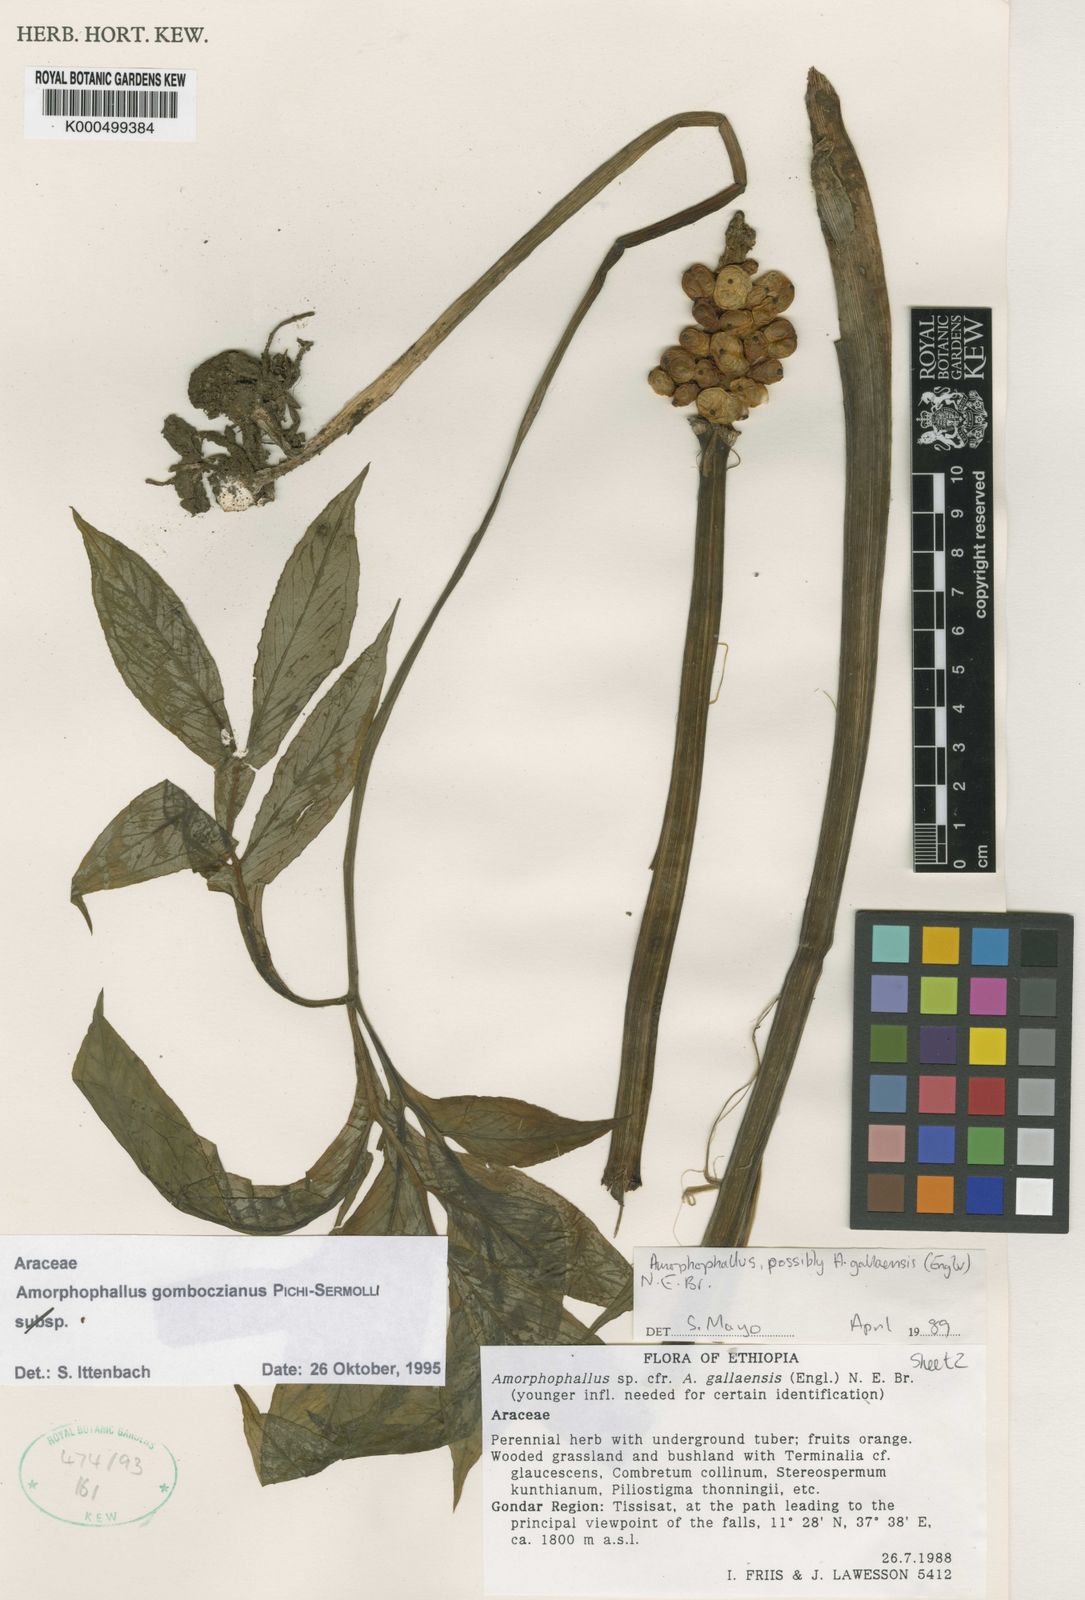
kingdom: Plantae
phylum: Tracheophyta
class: Liliopsida
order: Alismatales
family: Araceae
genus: Amorphophallus
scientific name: Amorphophallus
